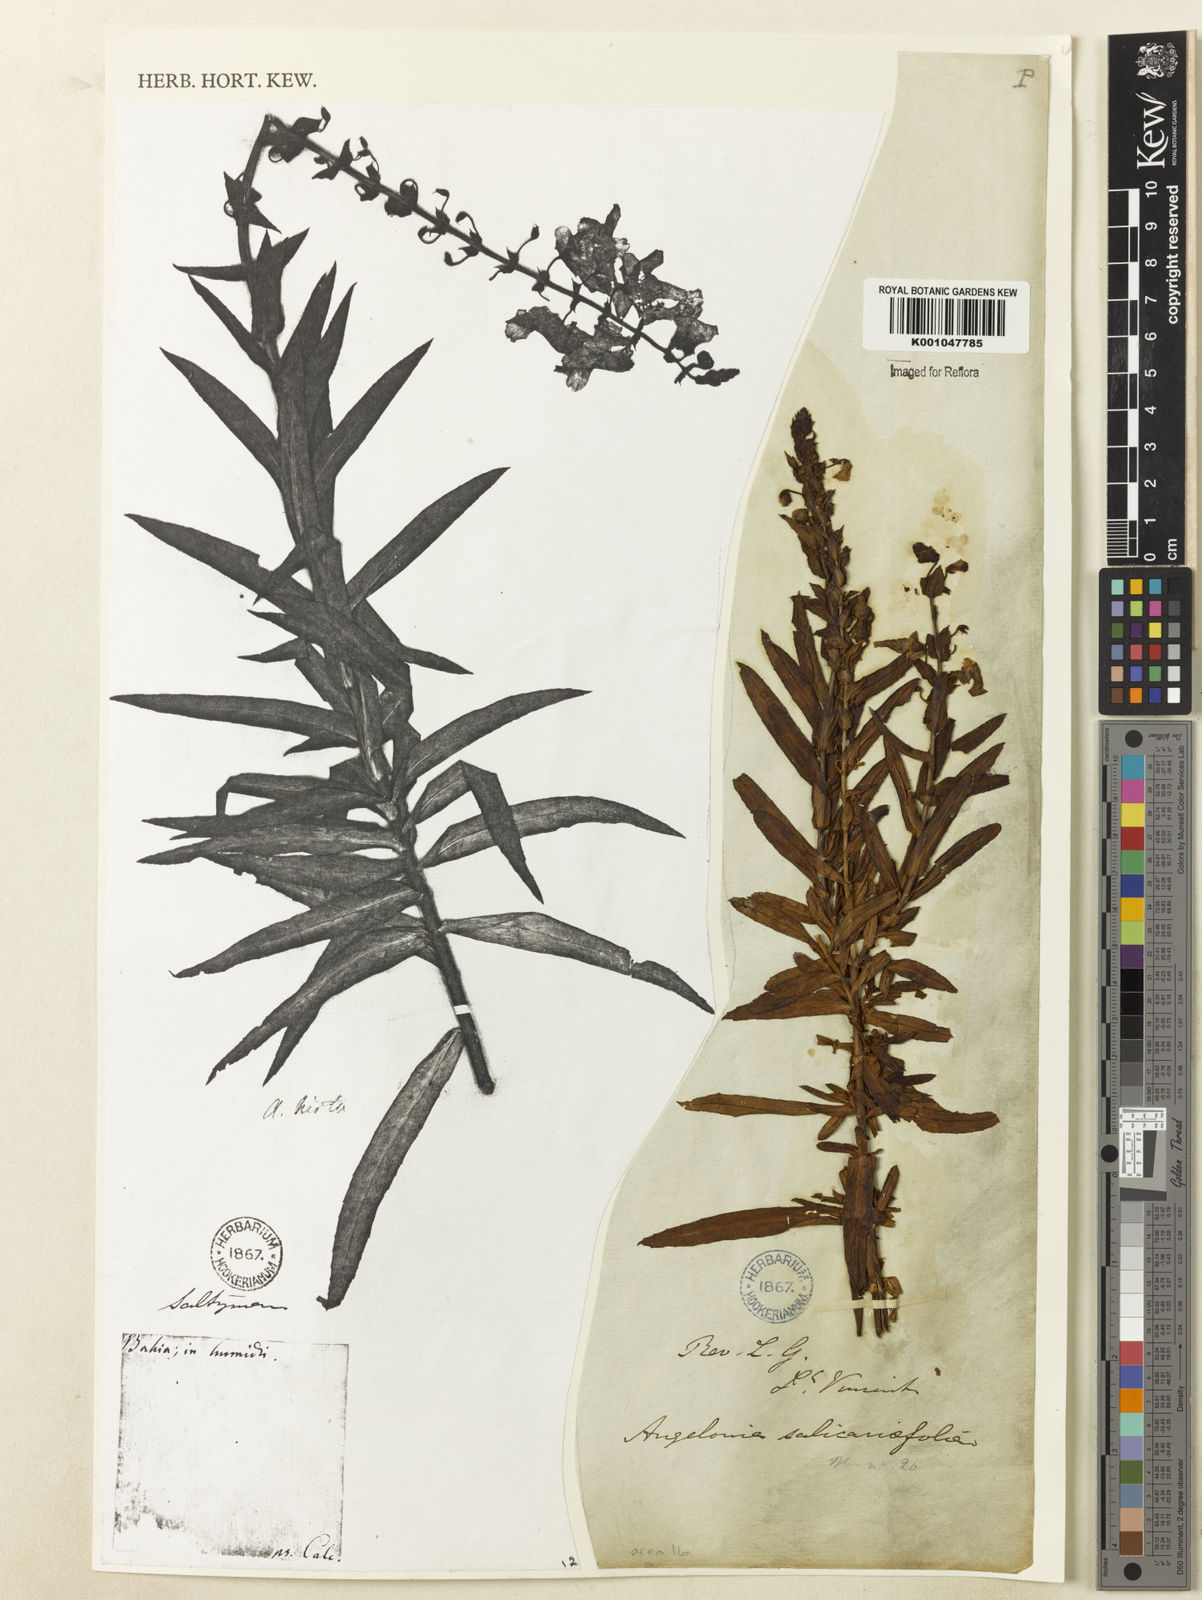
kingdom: Plantae
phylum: Tracheophyta
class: Magnoliopsida
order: Lamiales
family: Plantaginaceae
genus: Angelonia
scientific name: Angelonia salicariifolia
